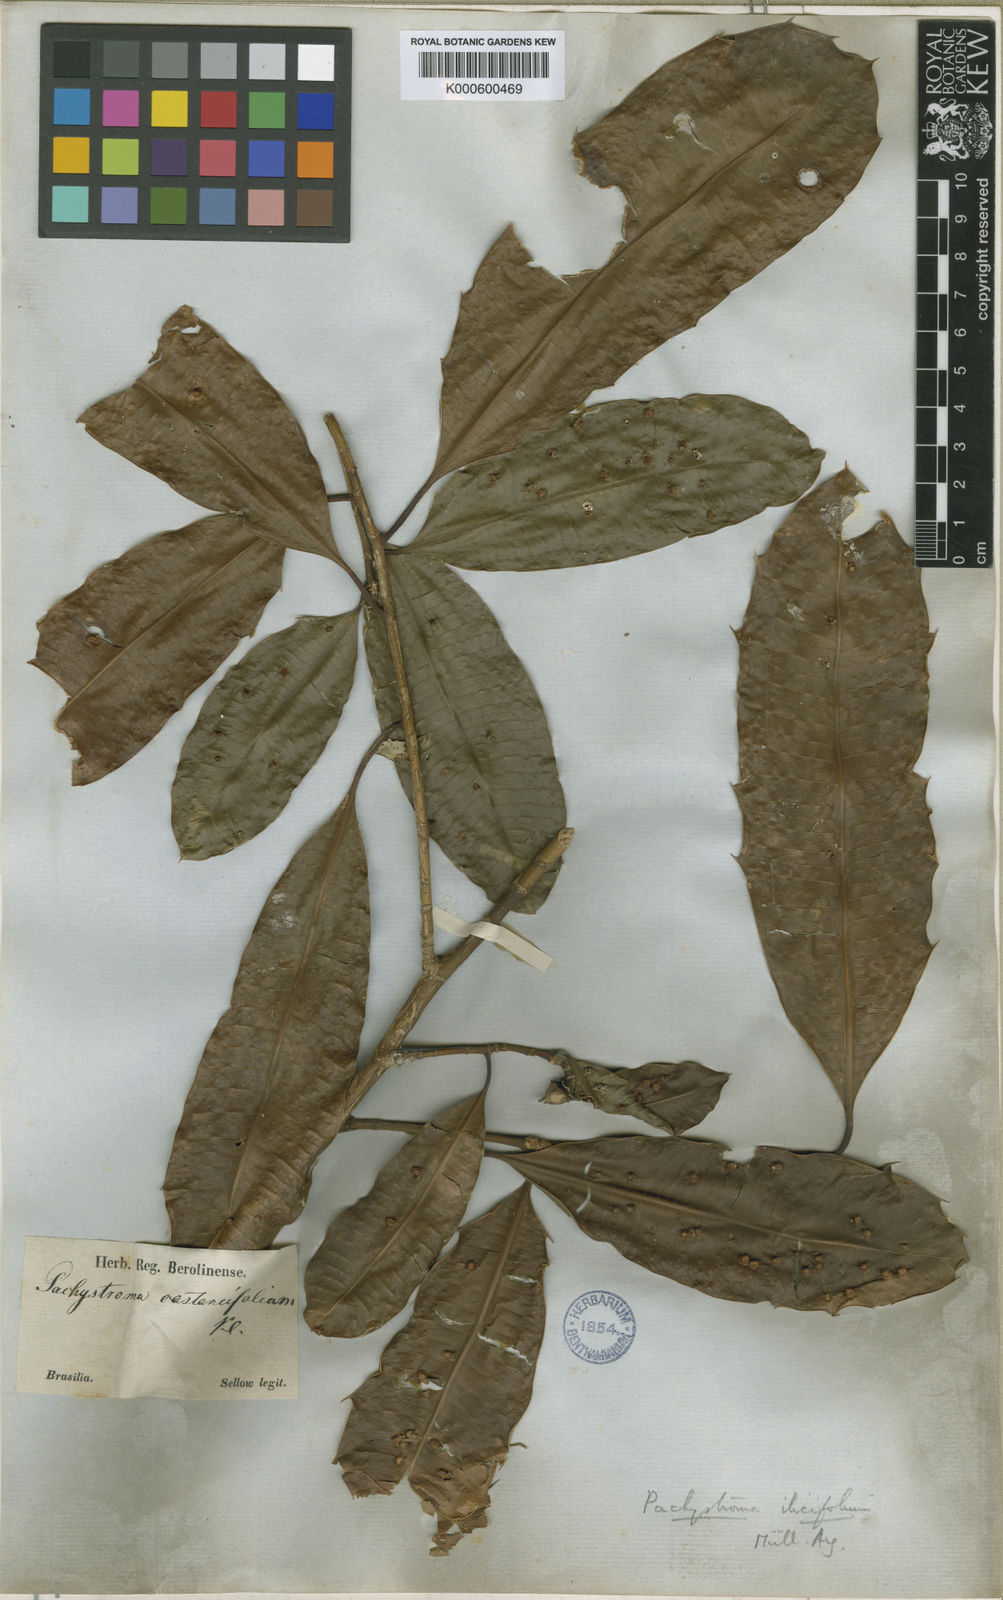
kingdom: Plantae
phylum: Tracheophyta
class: Magnoliopsida
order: Malpighiales
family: Euphorbiaceae
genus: Pachystroma
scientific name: Pachystroma longifolium
